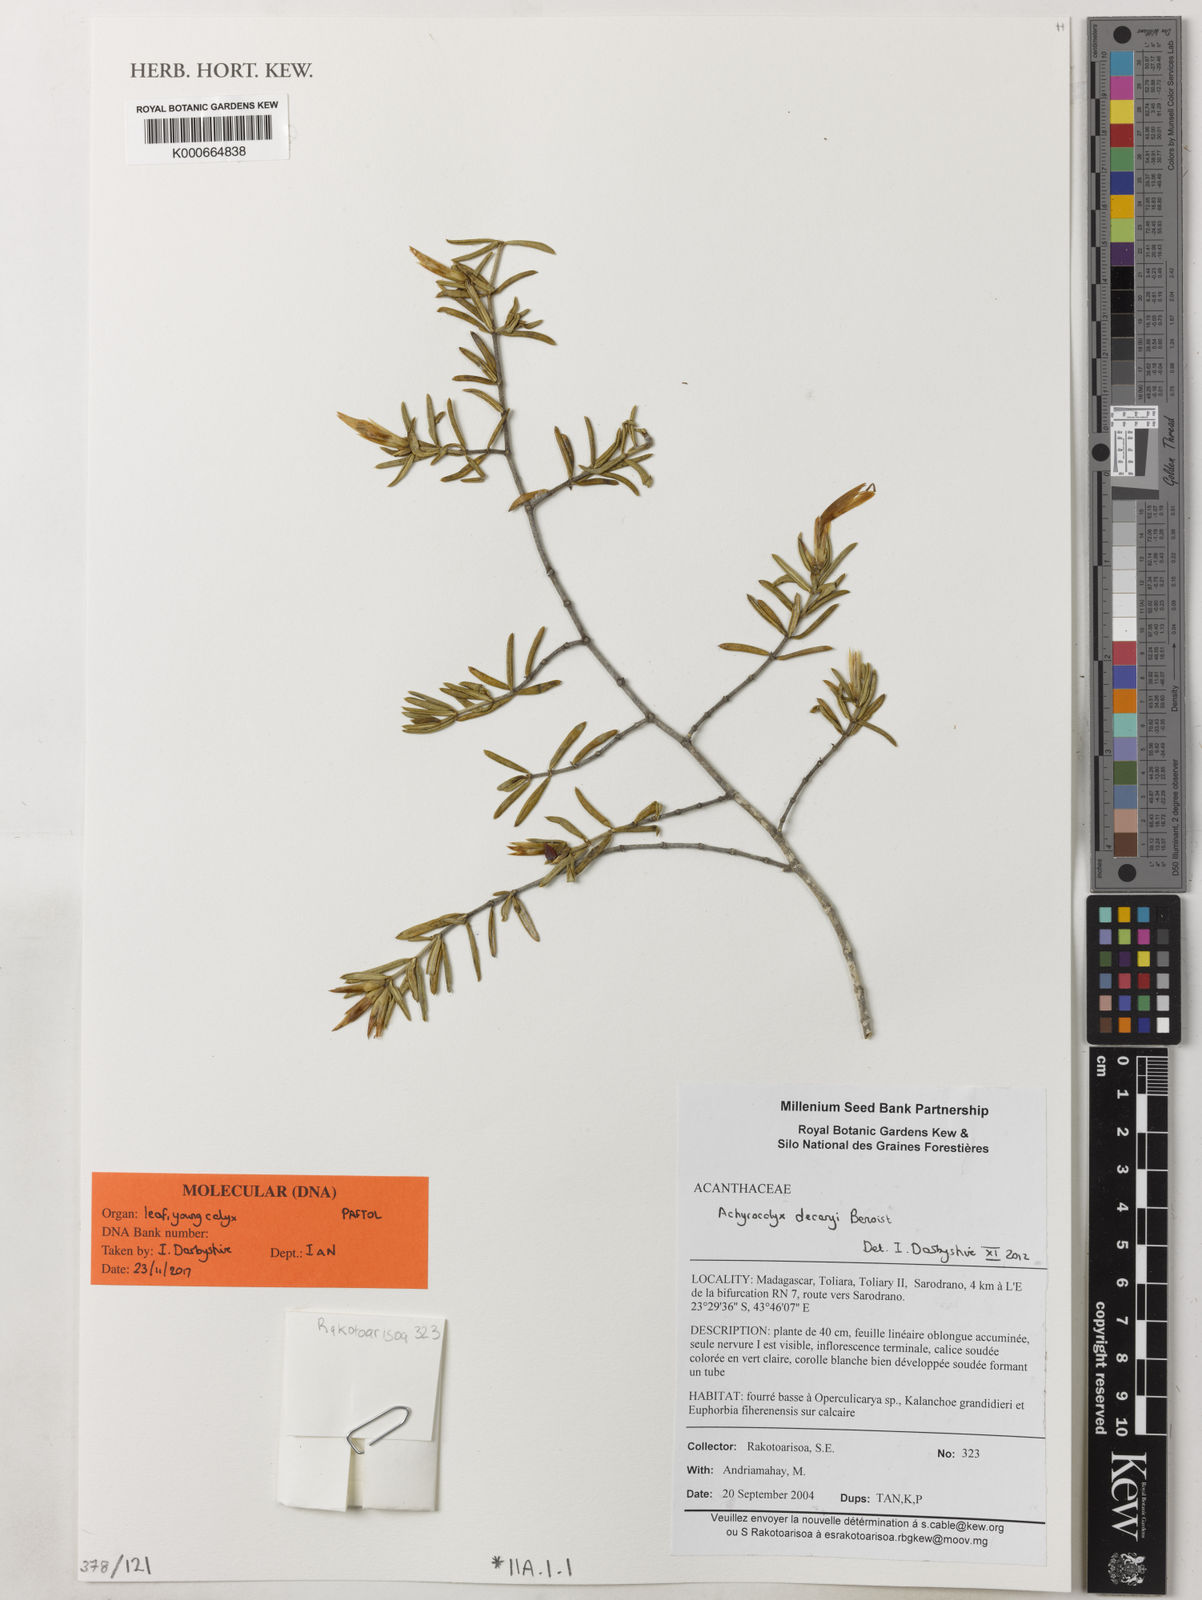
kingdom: Plantae
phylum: Tracheophyta
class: Magnoliopsida
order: Lamiales
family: Acanthaceae
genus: Stenandriopsis
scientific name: Stenandriopsis decaryi
